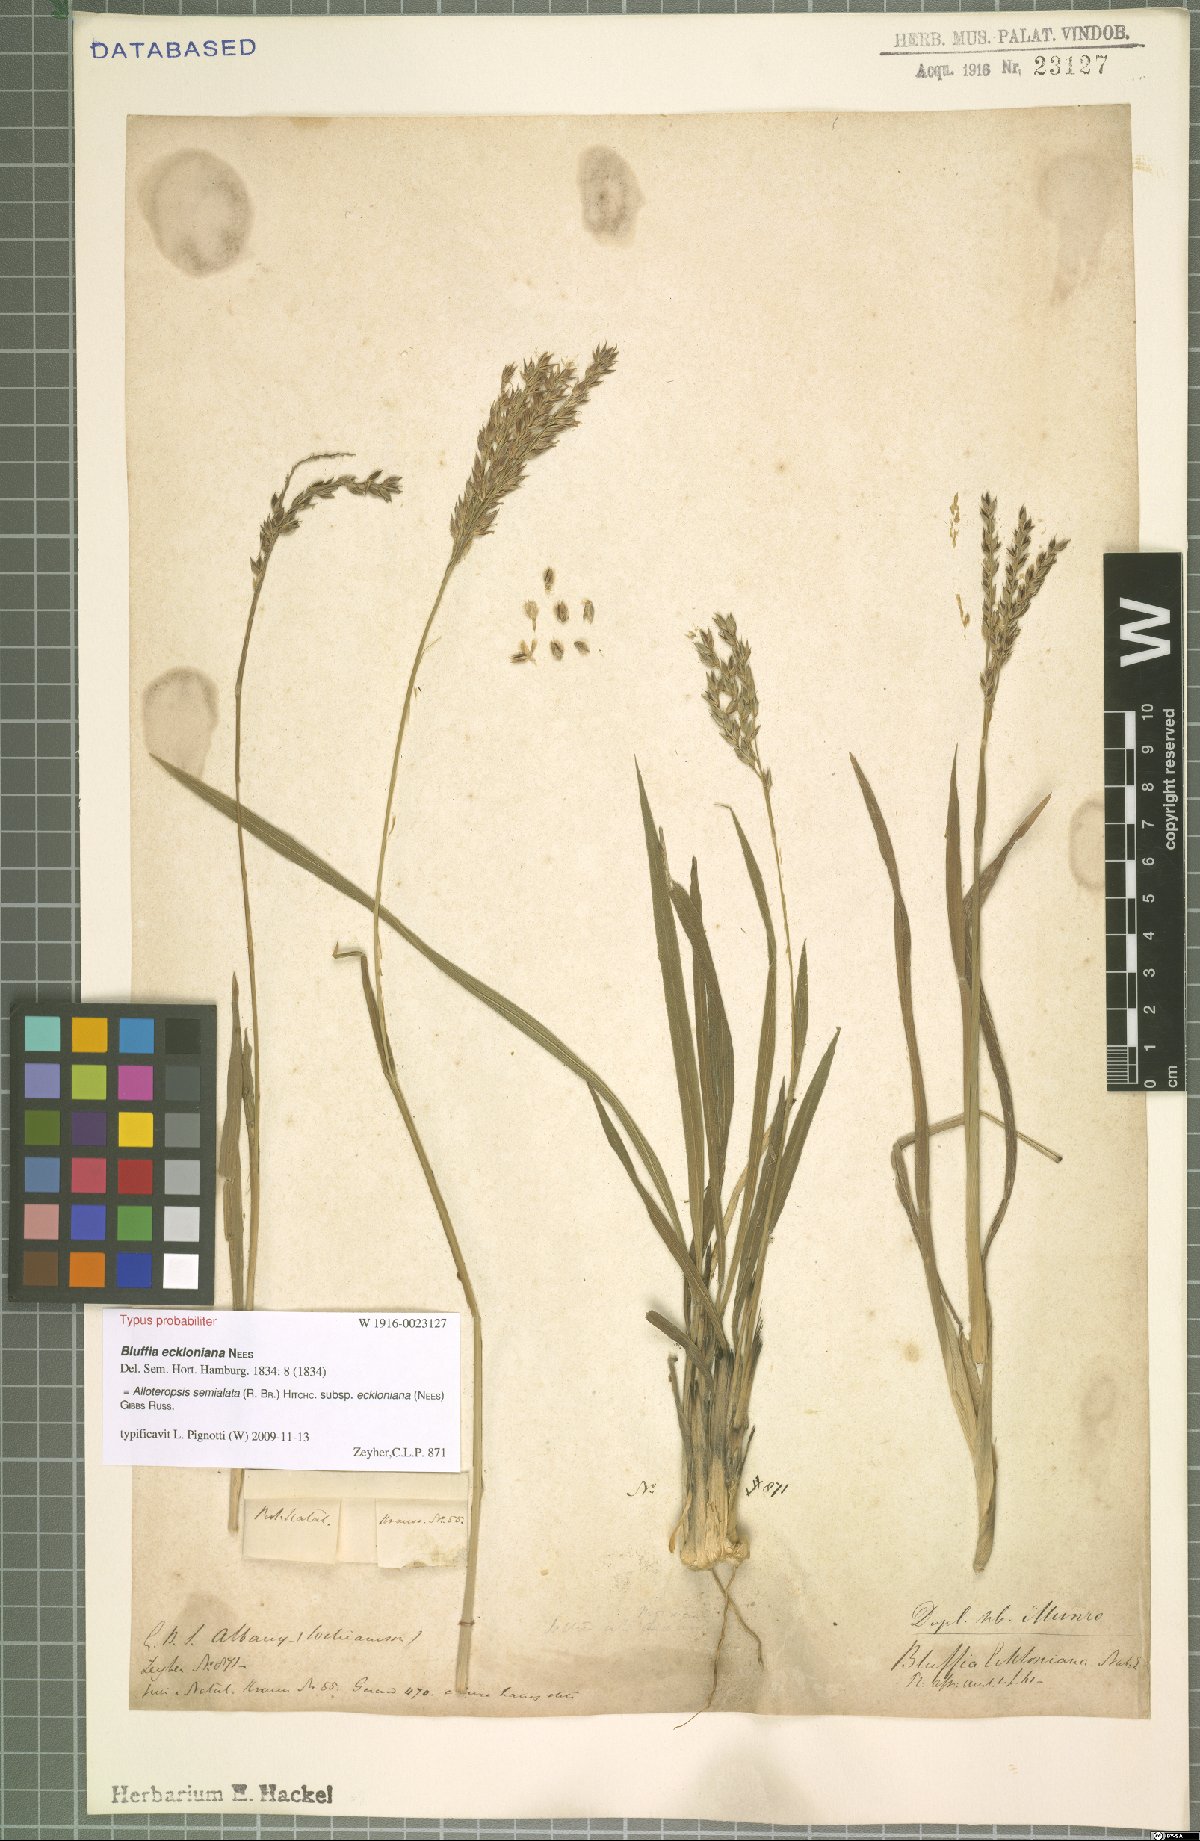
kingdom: Plantae
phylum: Tracheophyta
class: Liliopsida
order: Poales
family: Poaceae
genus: Alloteropsis
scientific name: Alloteropsis semialata
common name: Cockatoo grass
